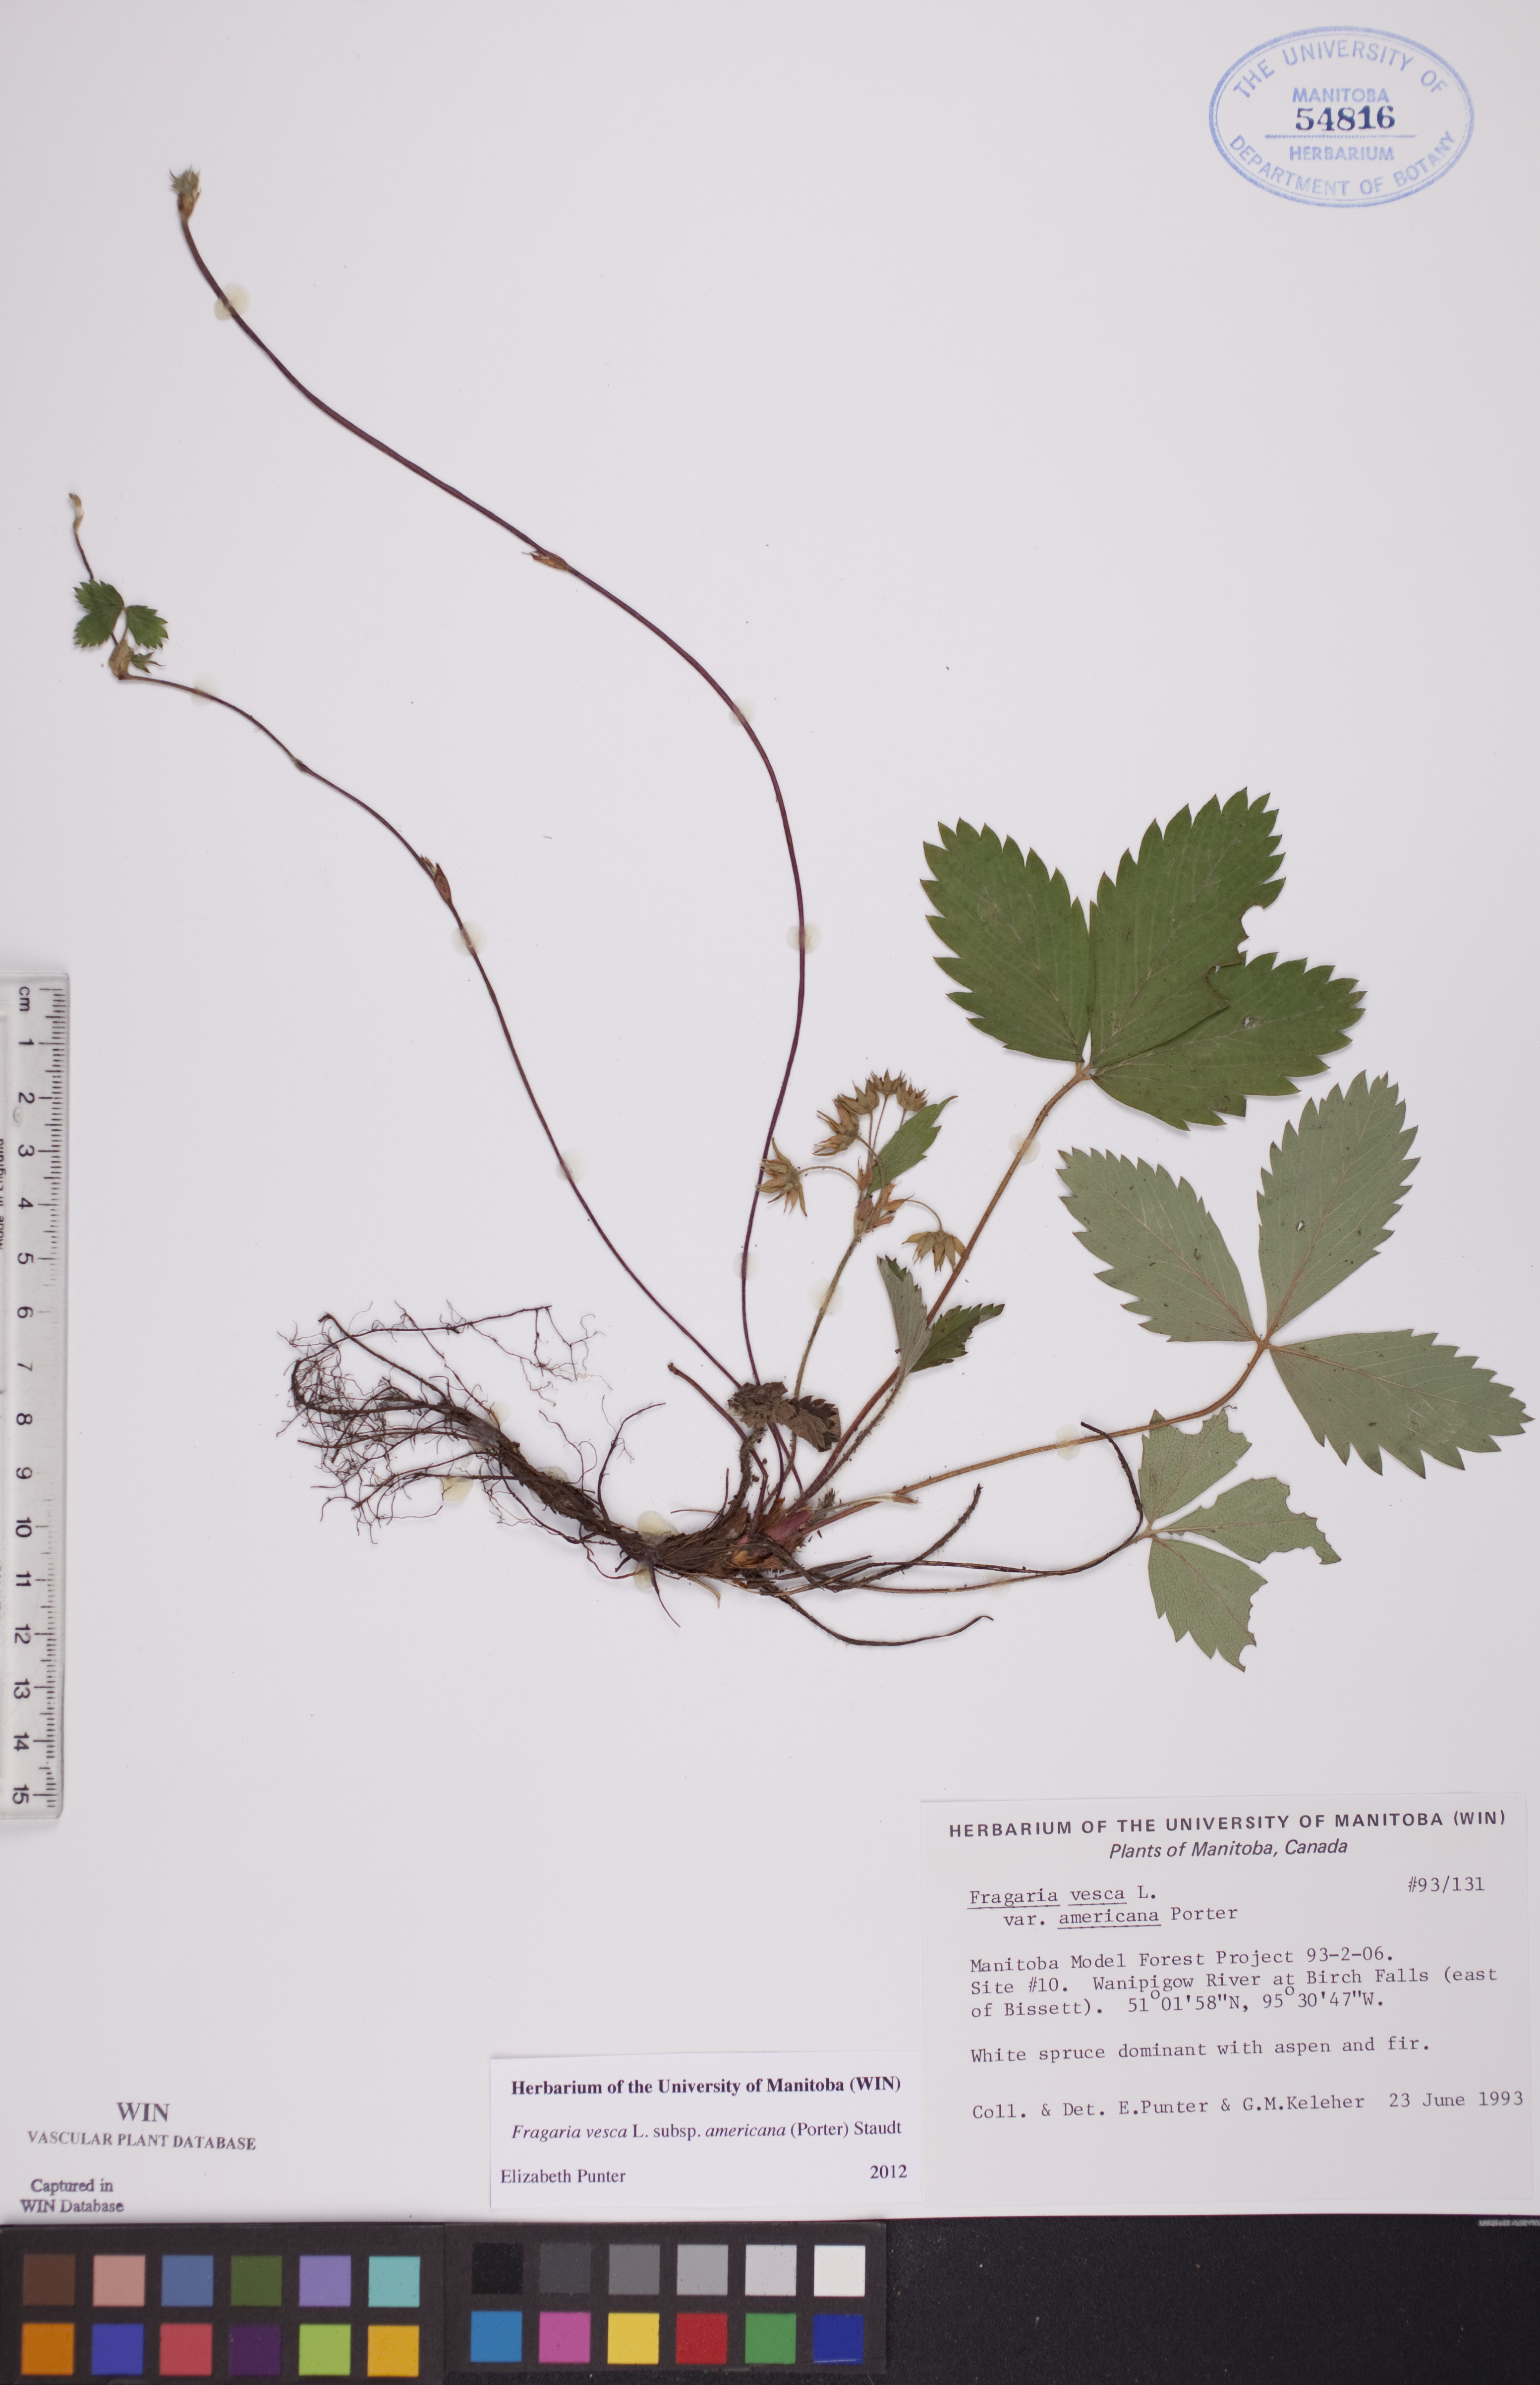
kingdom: Plantae
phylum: Tracheophyta
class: Magnoliopsida
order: Rosales
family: Rosaceae
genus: Fragaria
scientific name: Fragaria vesca
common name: Wild strawberry
